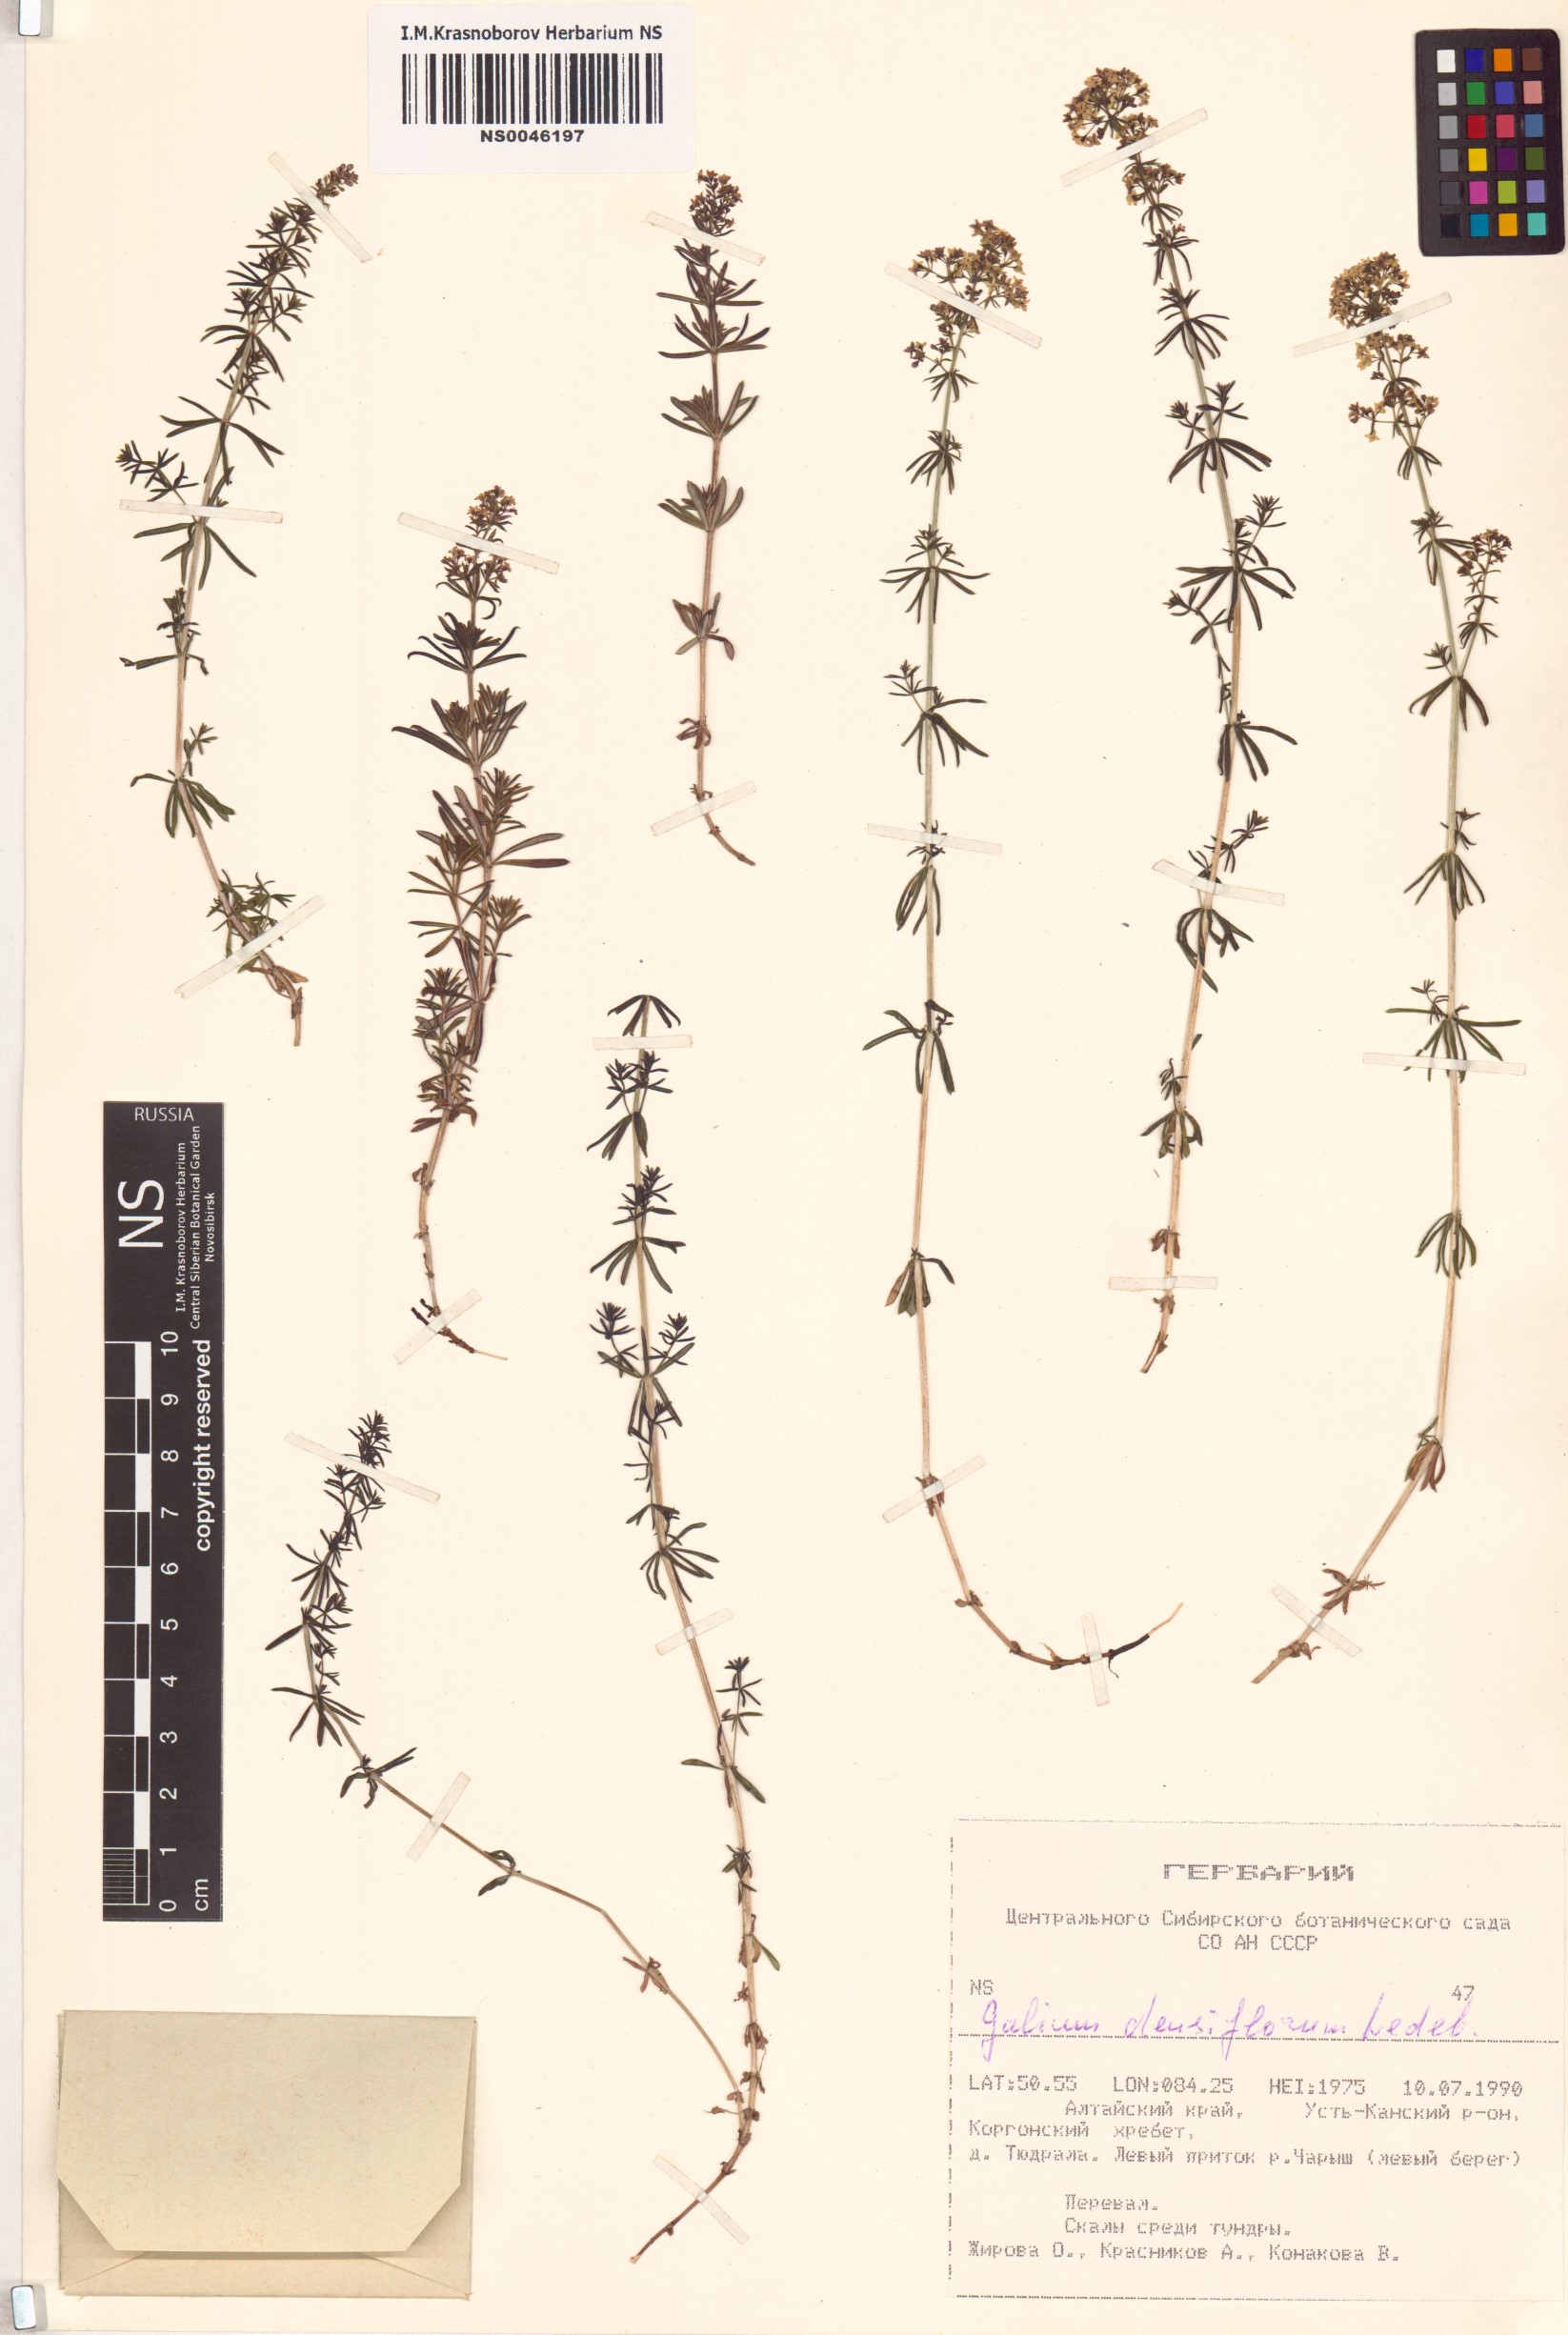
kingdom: Plantae
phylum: Tracheophyta
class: Magnoliopsida
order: Gentianales
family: Rubiaceae
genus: Galium
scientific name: Galium densiflorum
